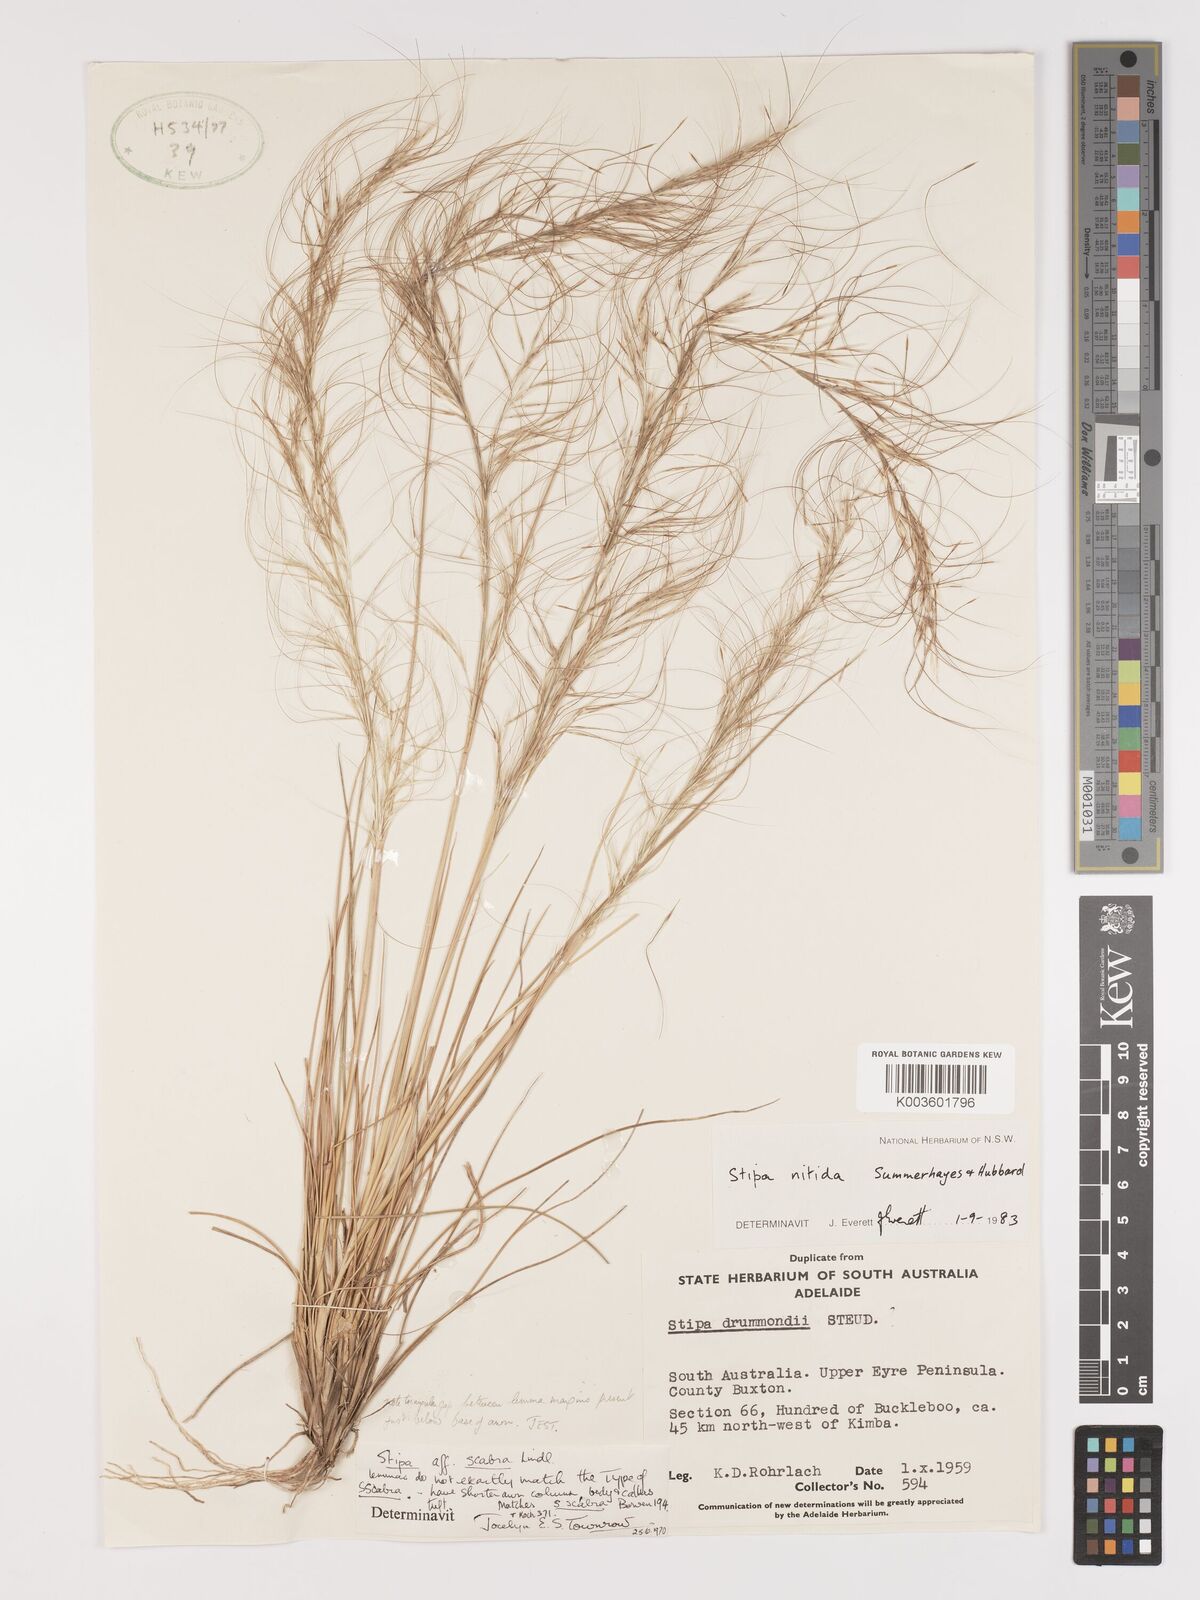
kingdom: Plantae
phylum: Tracheophyta
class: Liliopsida
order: Poales
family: Poaceae
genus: Austrostipa
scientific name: Austrostipa nitida
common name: Balcarra grass
